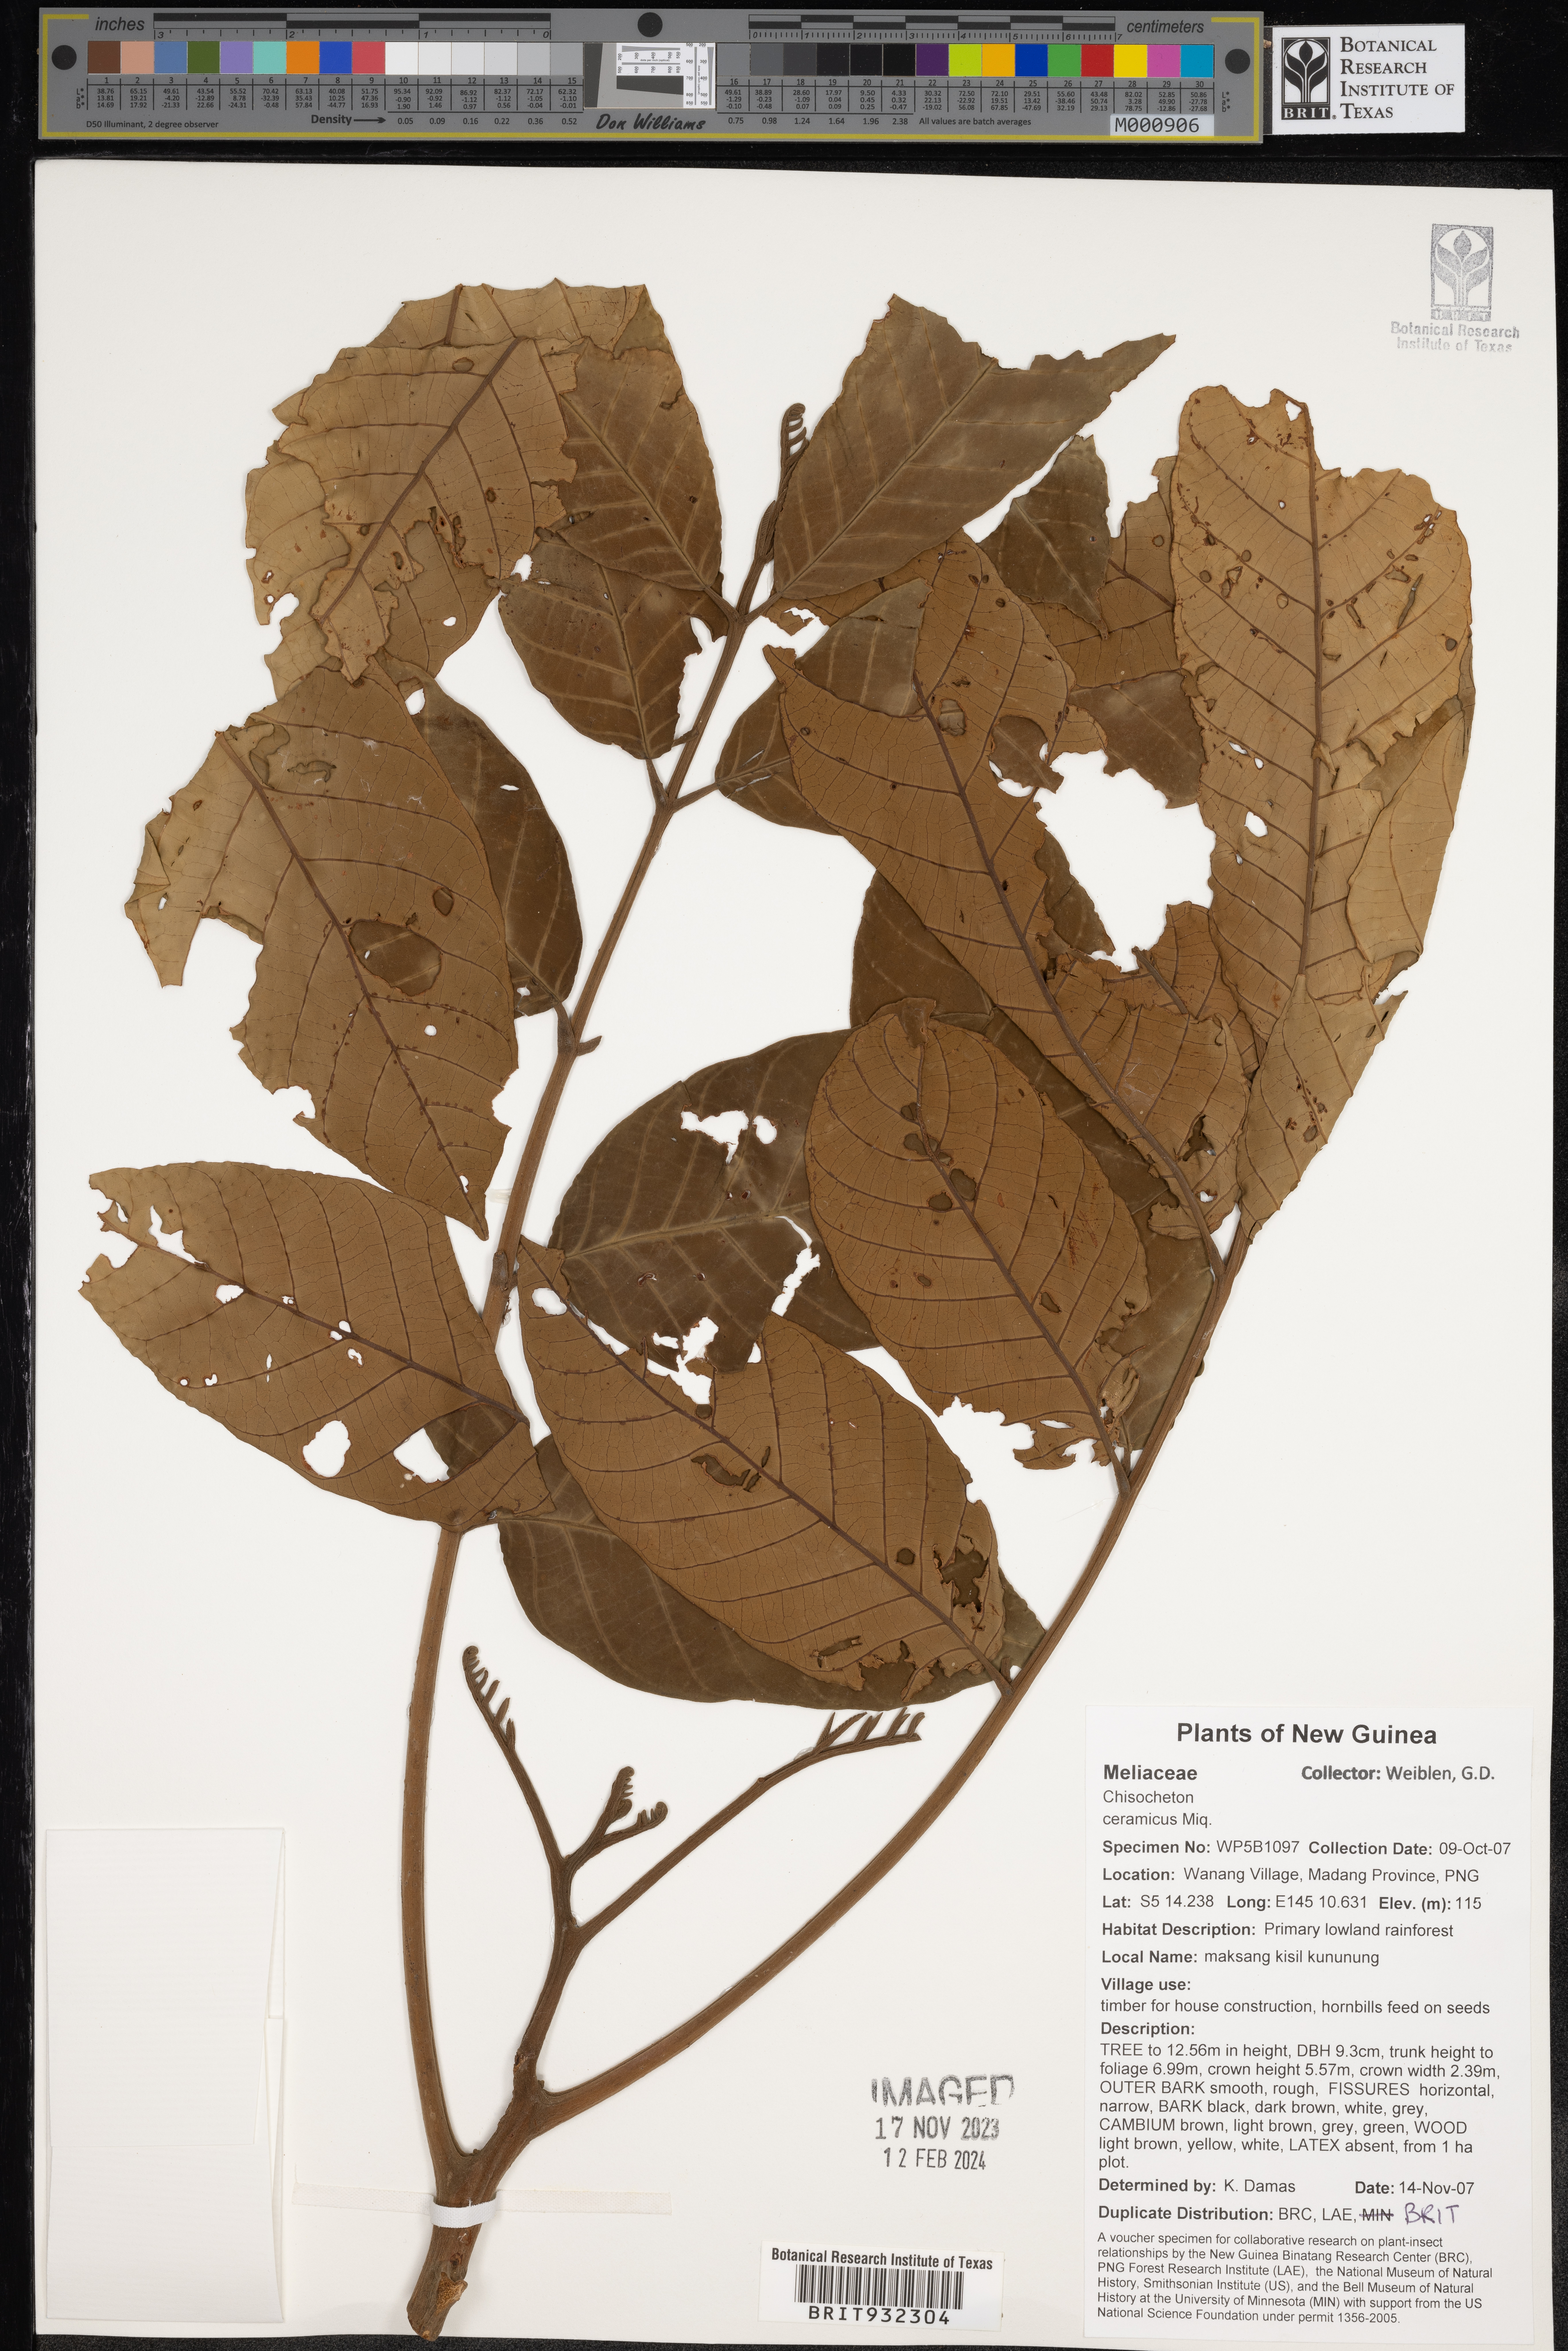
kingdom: Plantae
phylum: Tracheophyta
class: Magnoliopsida
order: Sapindales
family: Meliaceae
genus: Chisocheton
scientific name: Chisocheton
